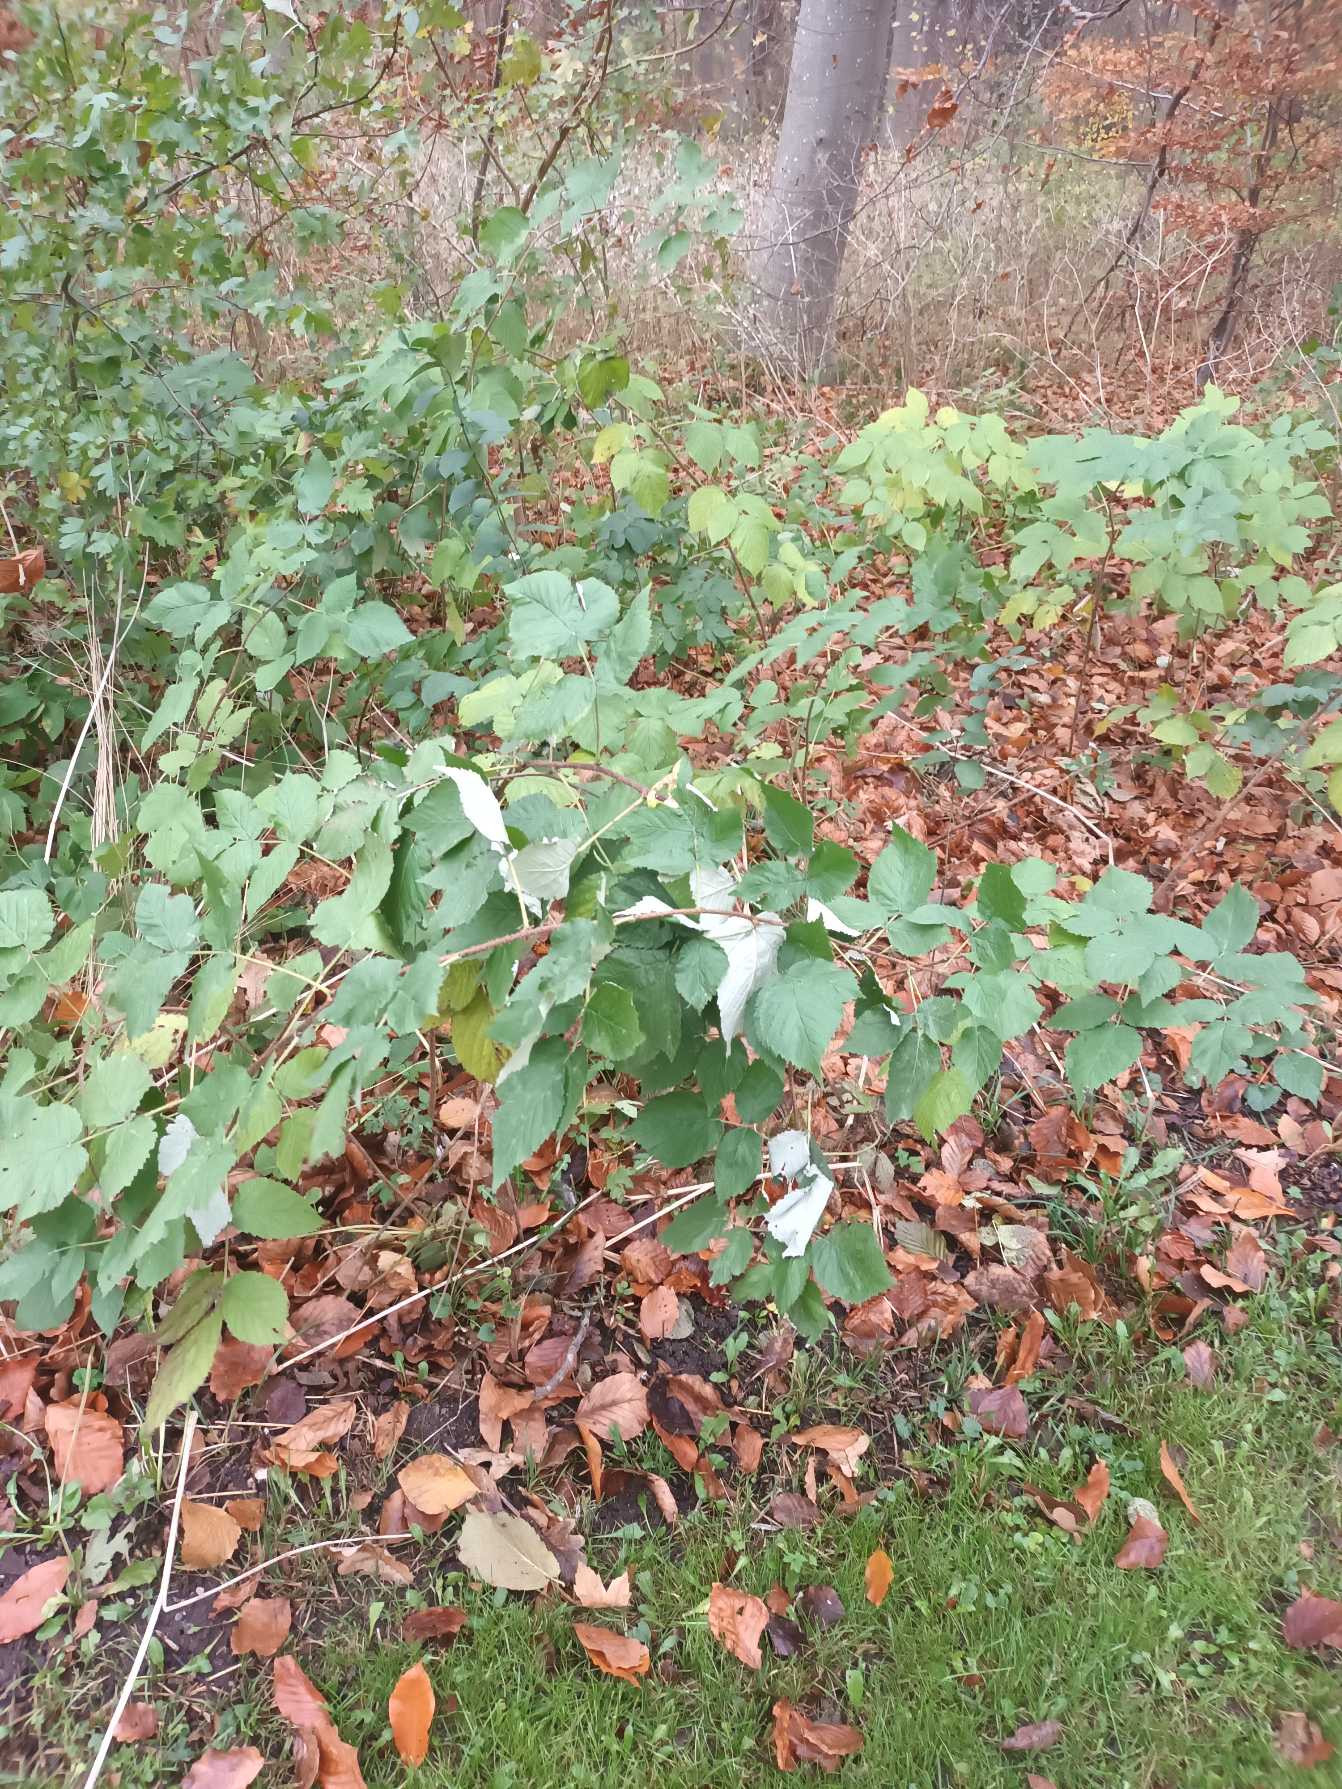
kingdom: Plantae
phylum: Tracheophyta
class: Magnoliopsida
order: Rosales
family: Rosaceae
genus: Rubus
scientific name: Rubus idaeus
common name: Hindbær
